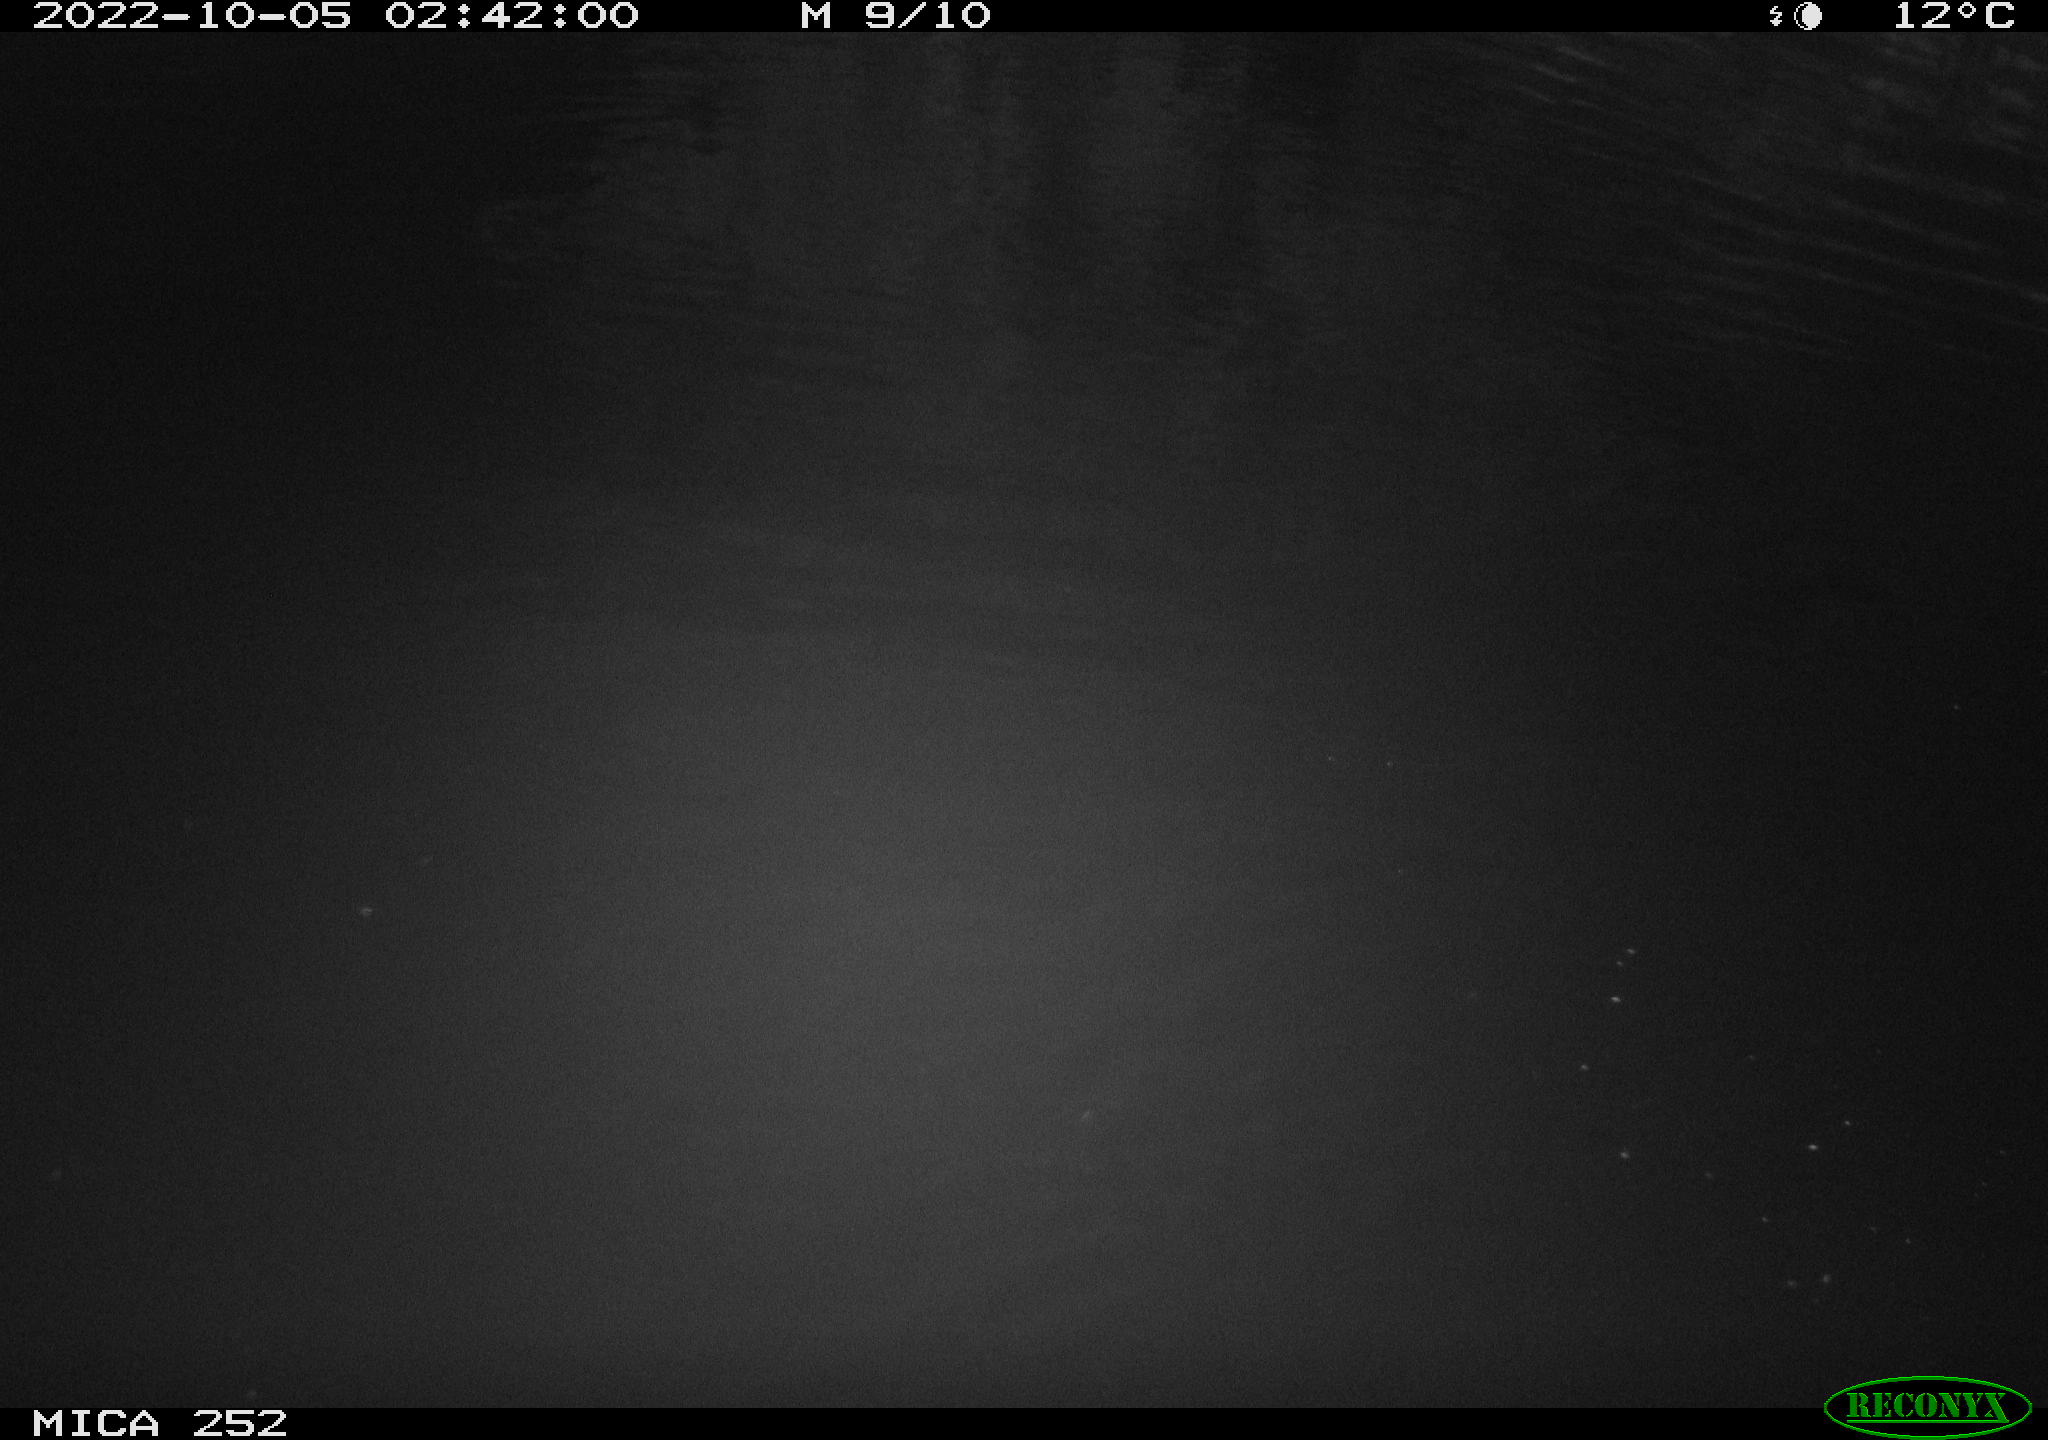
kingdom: Animalia
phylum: Chordata
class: Mammalia
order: Rodentia
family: Castoridae
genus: Castor
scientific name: Castor fiber
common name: Eurasian beaver
